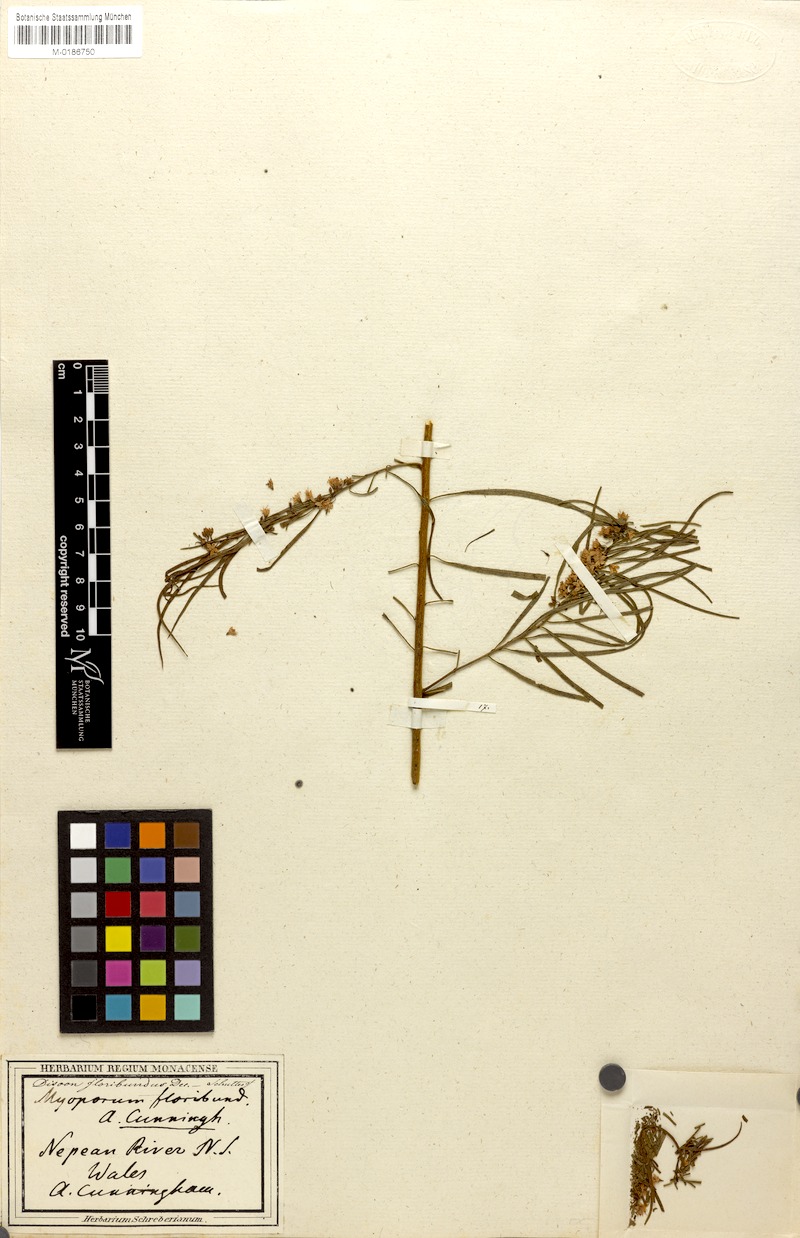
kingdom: Plantae
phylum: Tracheophyta
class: Magnoliopsida
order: Lamiales
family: Scrophulariaceae
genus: Myoporum
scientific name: Myoporum floribundum
